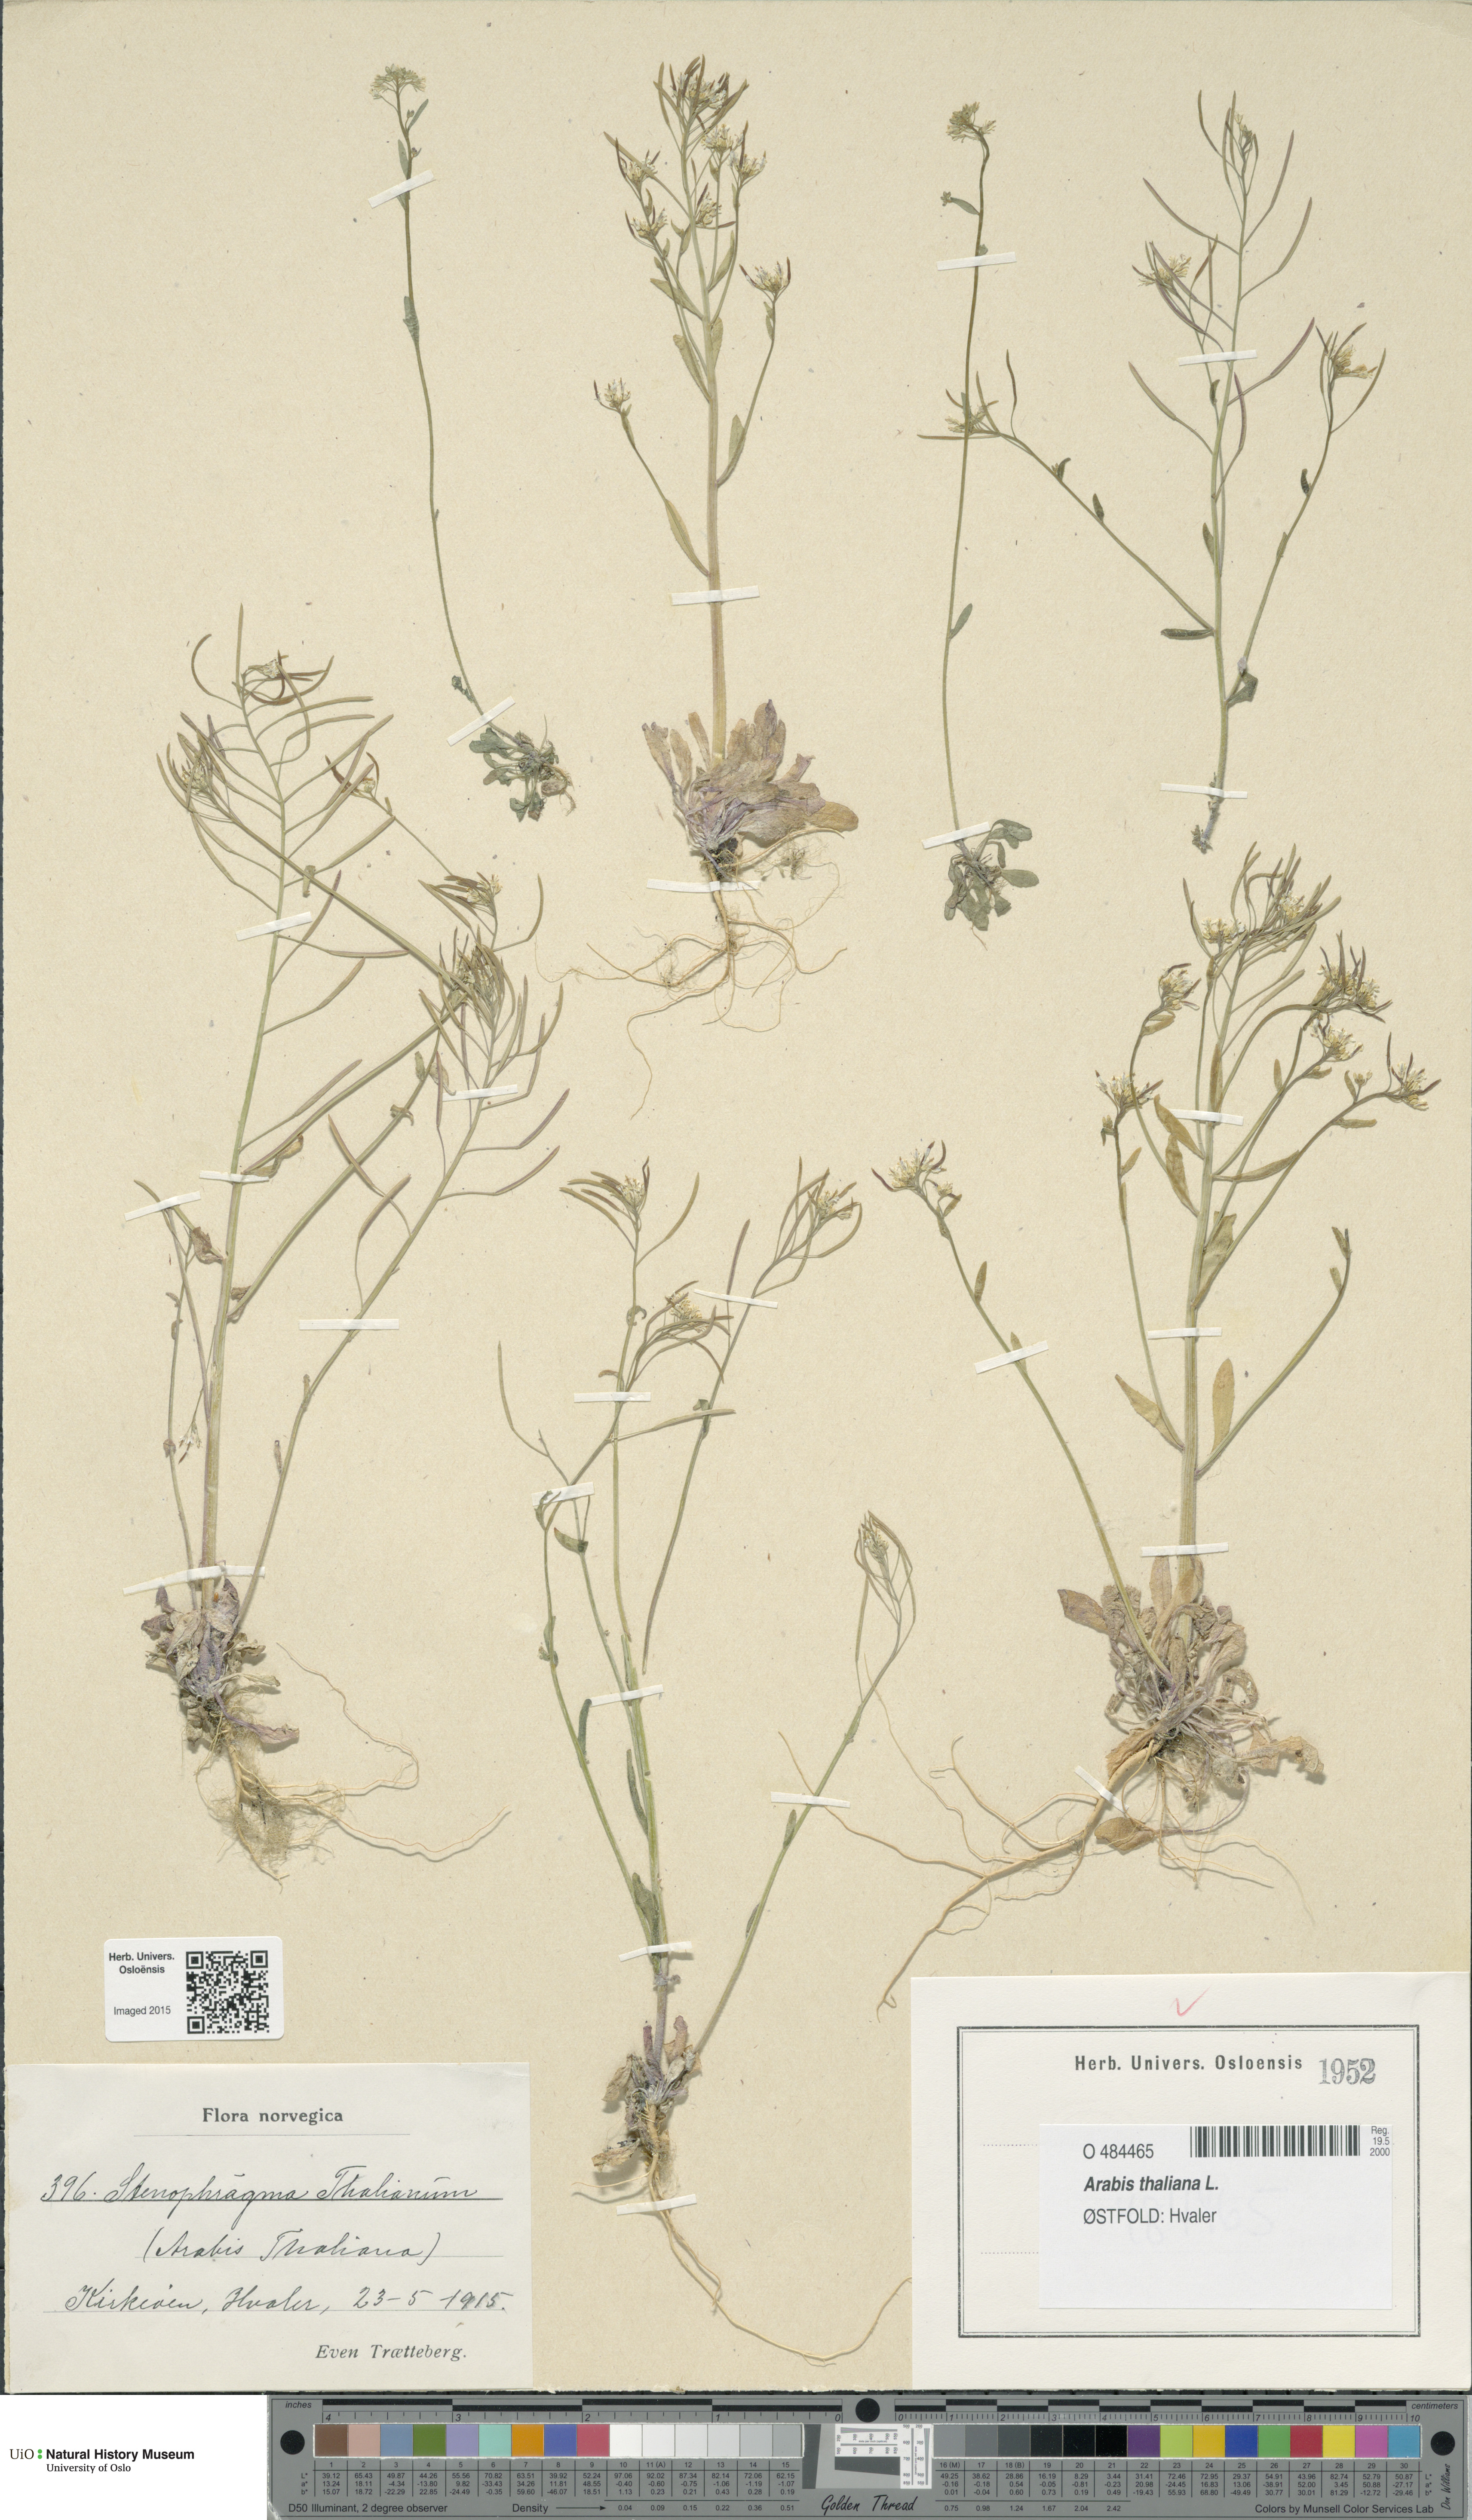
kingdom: Plantae
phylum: Tracheophyta
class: Magnoliopsida
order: Brassicales
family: Brassicaceae
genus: Arabidopsis
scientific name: Arabidopsis thaliana
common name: Thale cress
